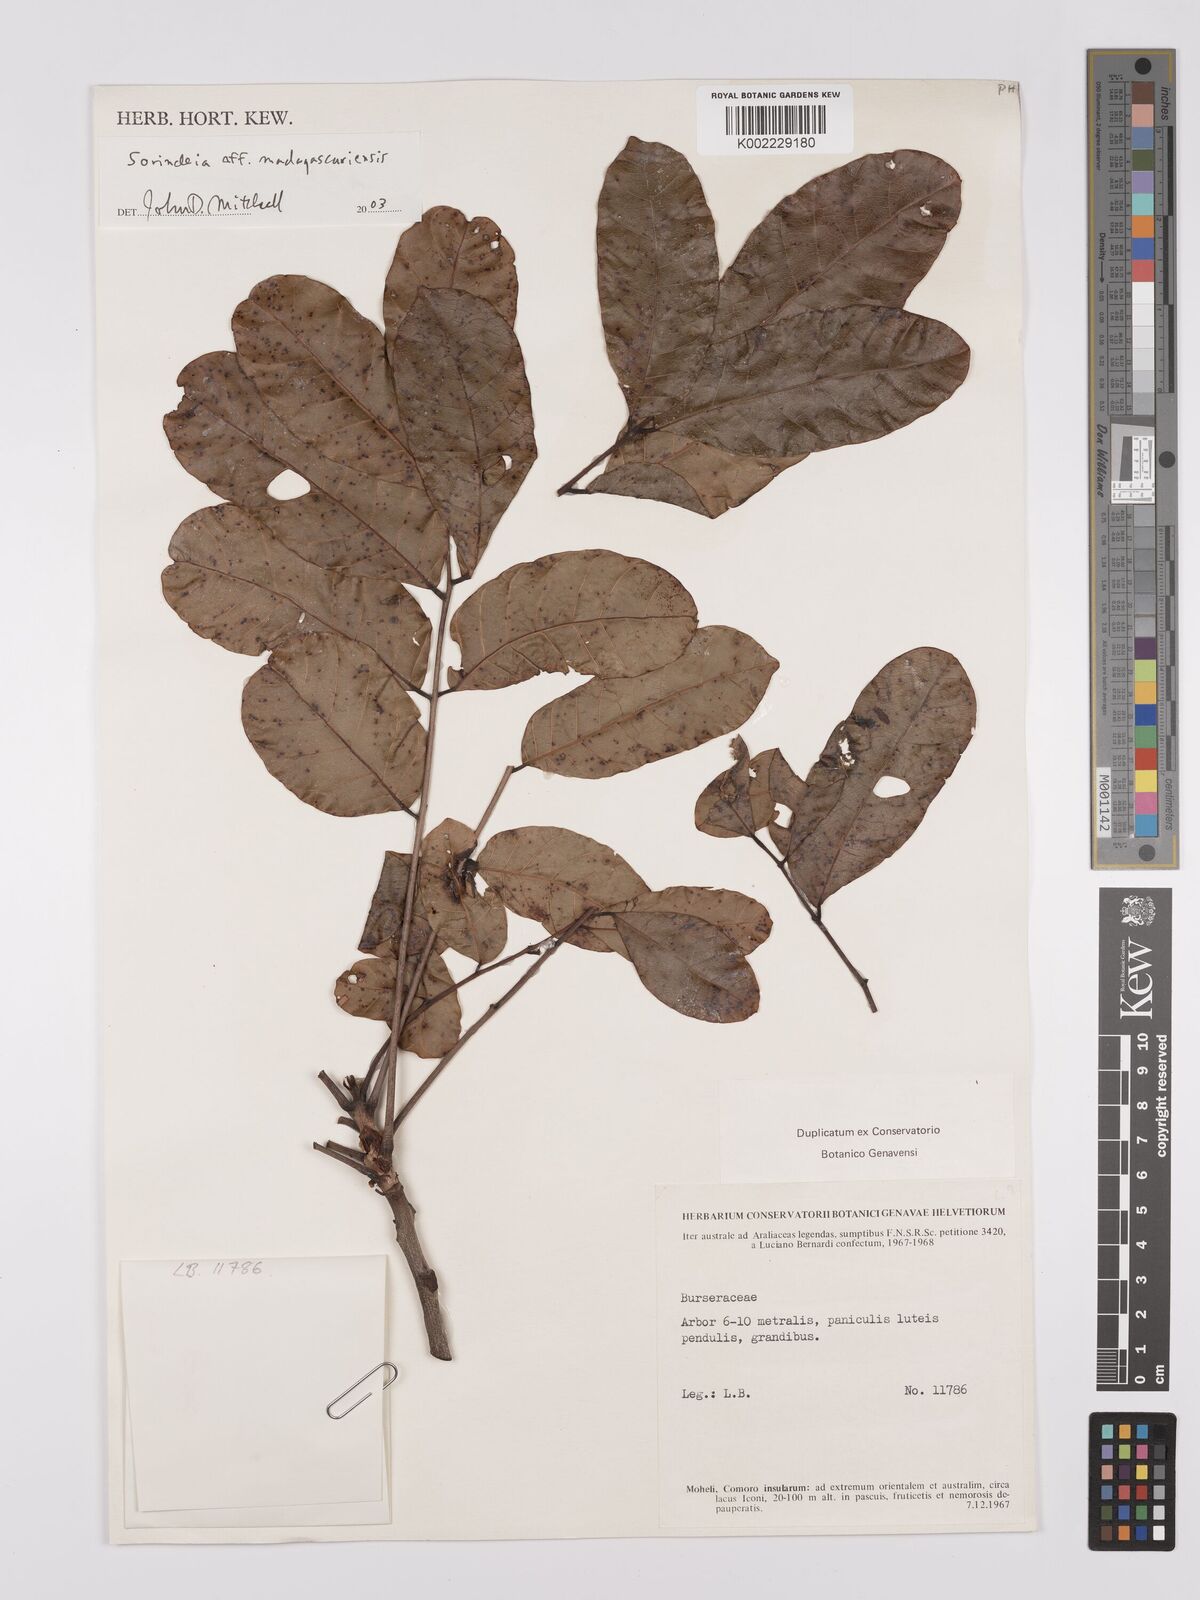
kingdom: Plantae
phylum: Tracheophyta
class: Magnoliopsida
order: Sapindales
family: Anacardiaceae
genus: Sorindeia
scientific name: Sorindeia
